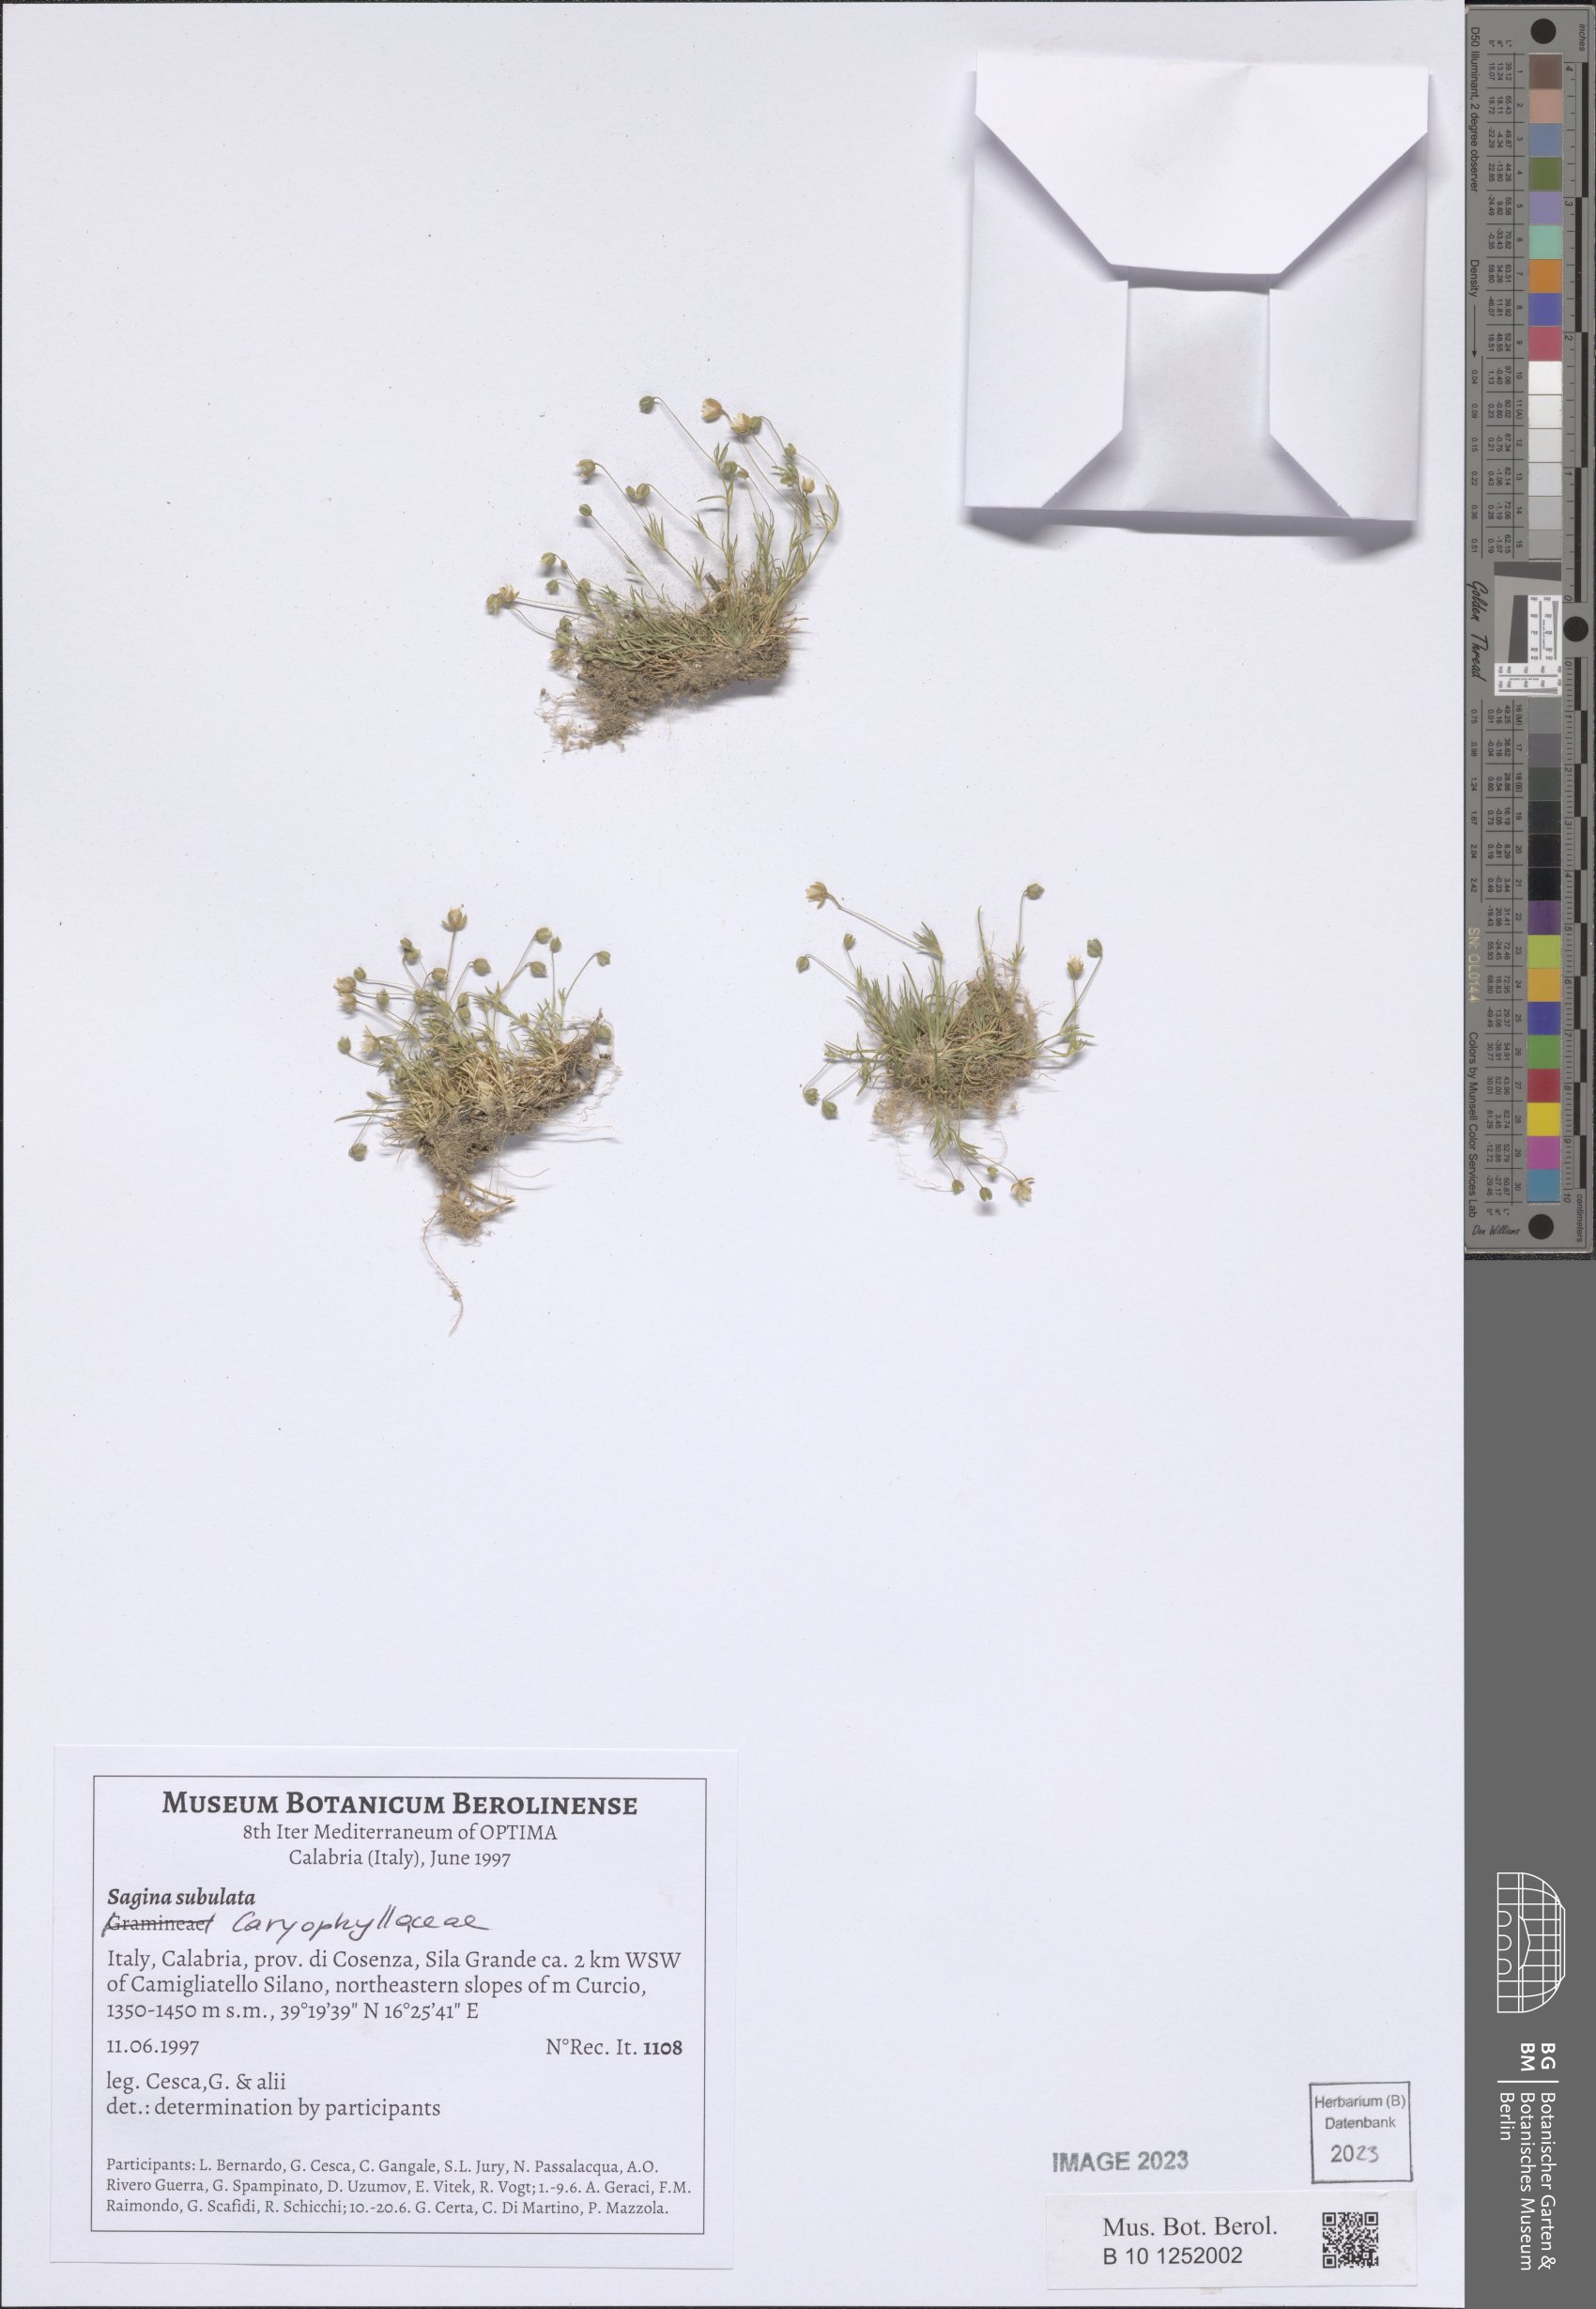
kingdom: Plantae
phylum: Tracheophyta
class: Magnoliopsida
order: Caryophyllales
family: Caryophyllaceae
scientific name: Caryophyllaceae
